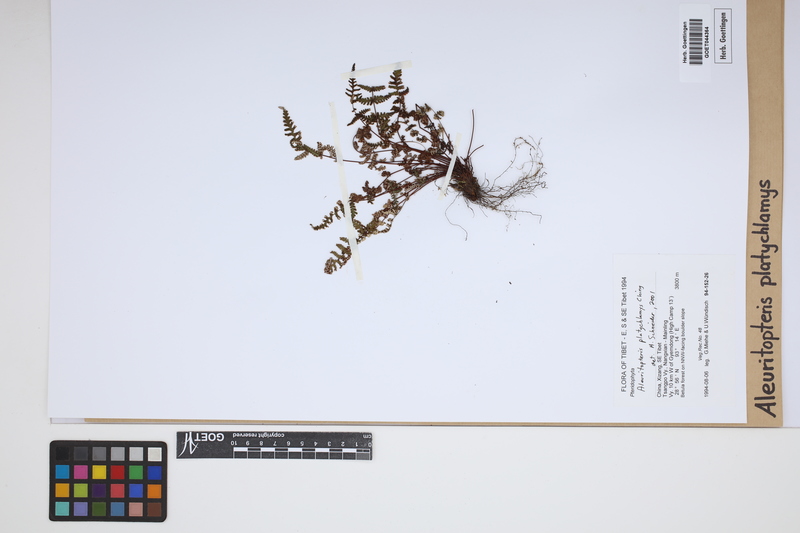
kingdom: Plantae
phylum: Tracheophyta
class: Polypodiopsida
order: Polypodiales
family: Pteridaceae
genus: Aleuritopteris
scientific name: Aleuritopteris grisea
